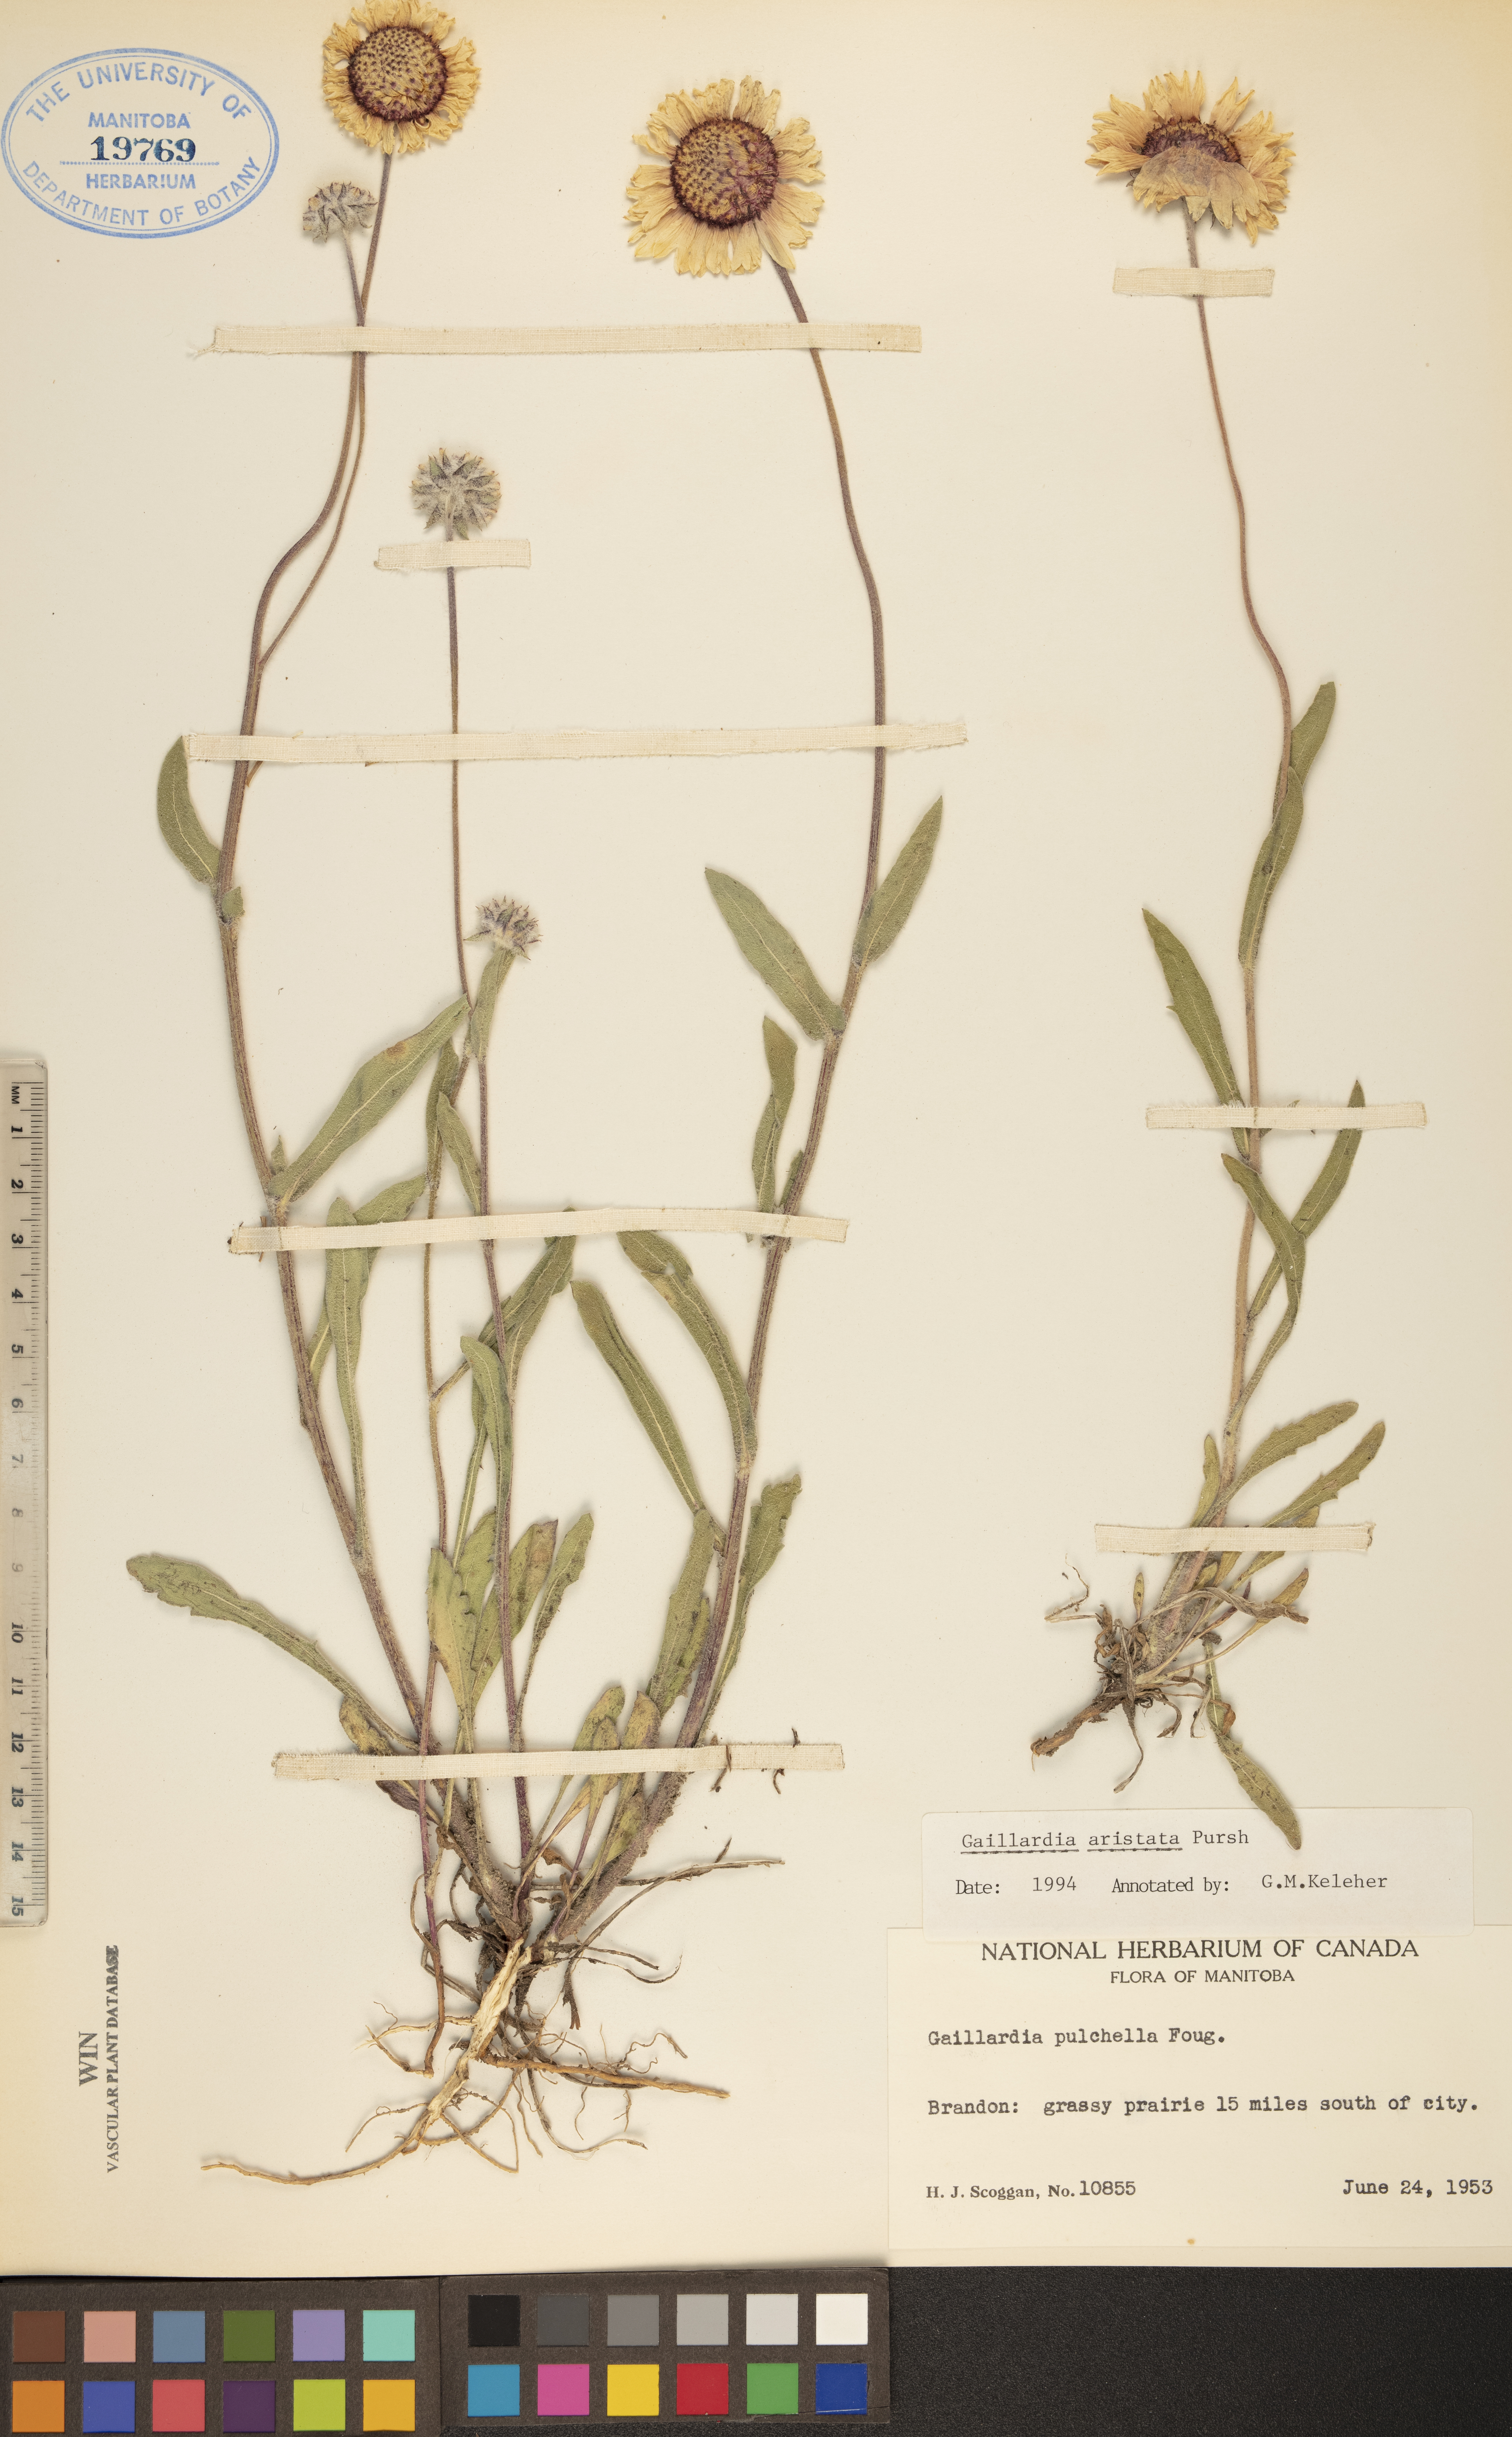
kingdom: Plantae
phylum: Tracheophyta
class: Magnoliopsida
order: Asterales
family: Asteraceae
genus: Gaillardia
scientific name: Gaillardia aristata
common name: Blanket-flower
